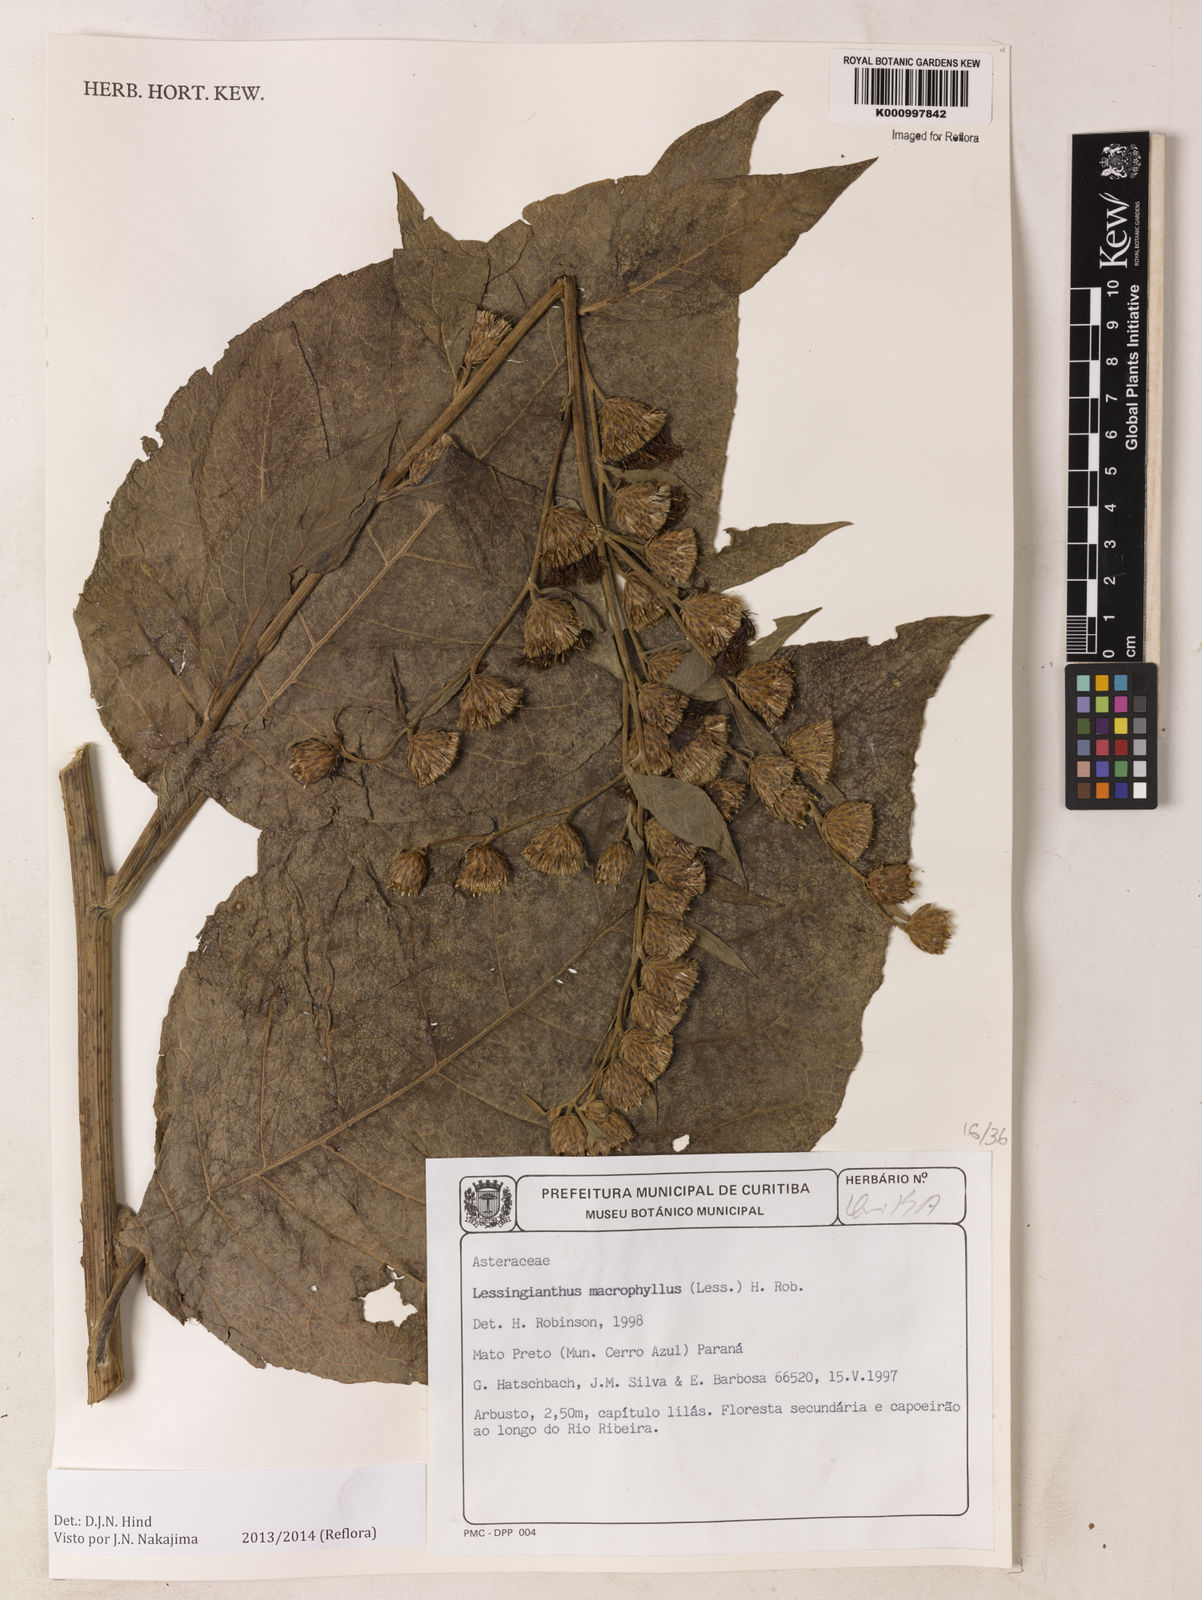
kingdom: Plantae
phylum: Tracheophyta
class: Magnoliopsida
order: Asterales
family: Asteraceae
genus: Lessingianthus
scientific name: Lessingianthus macrophyllus
